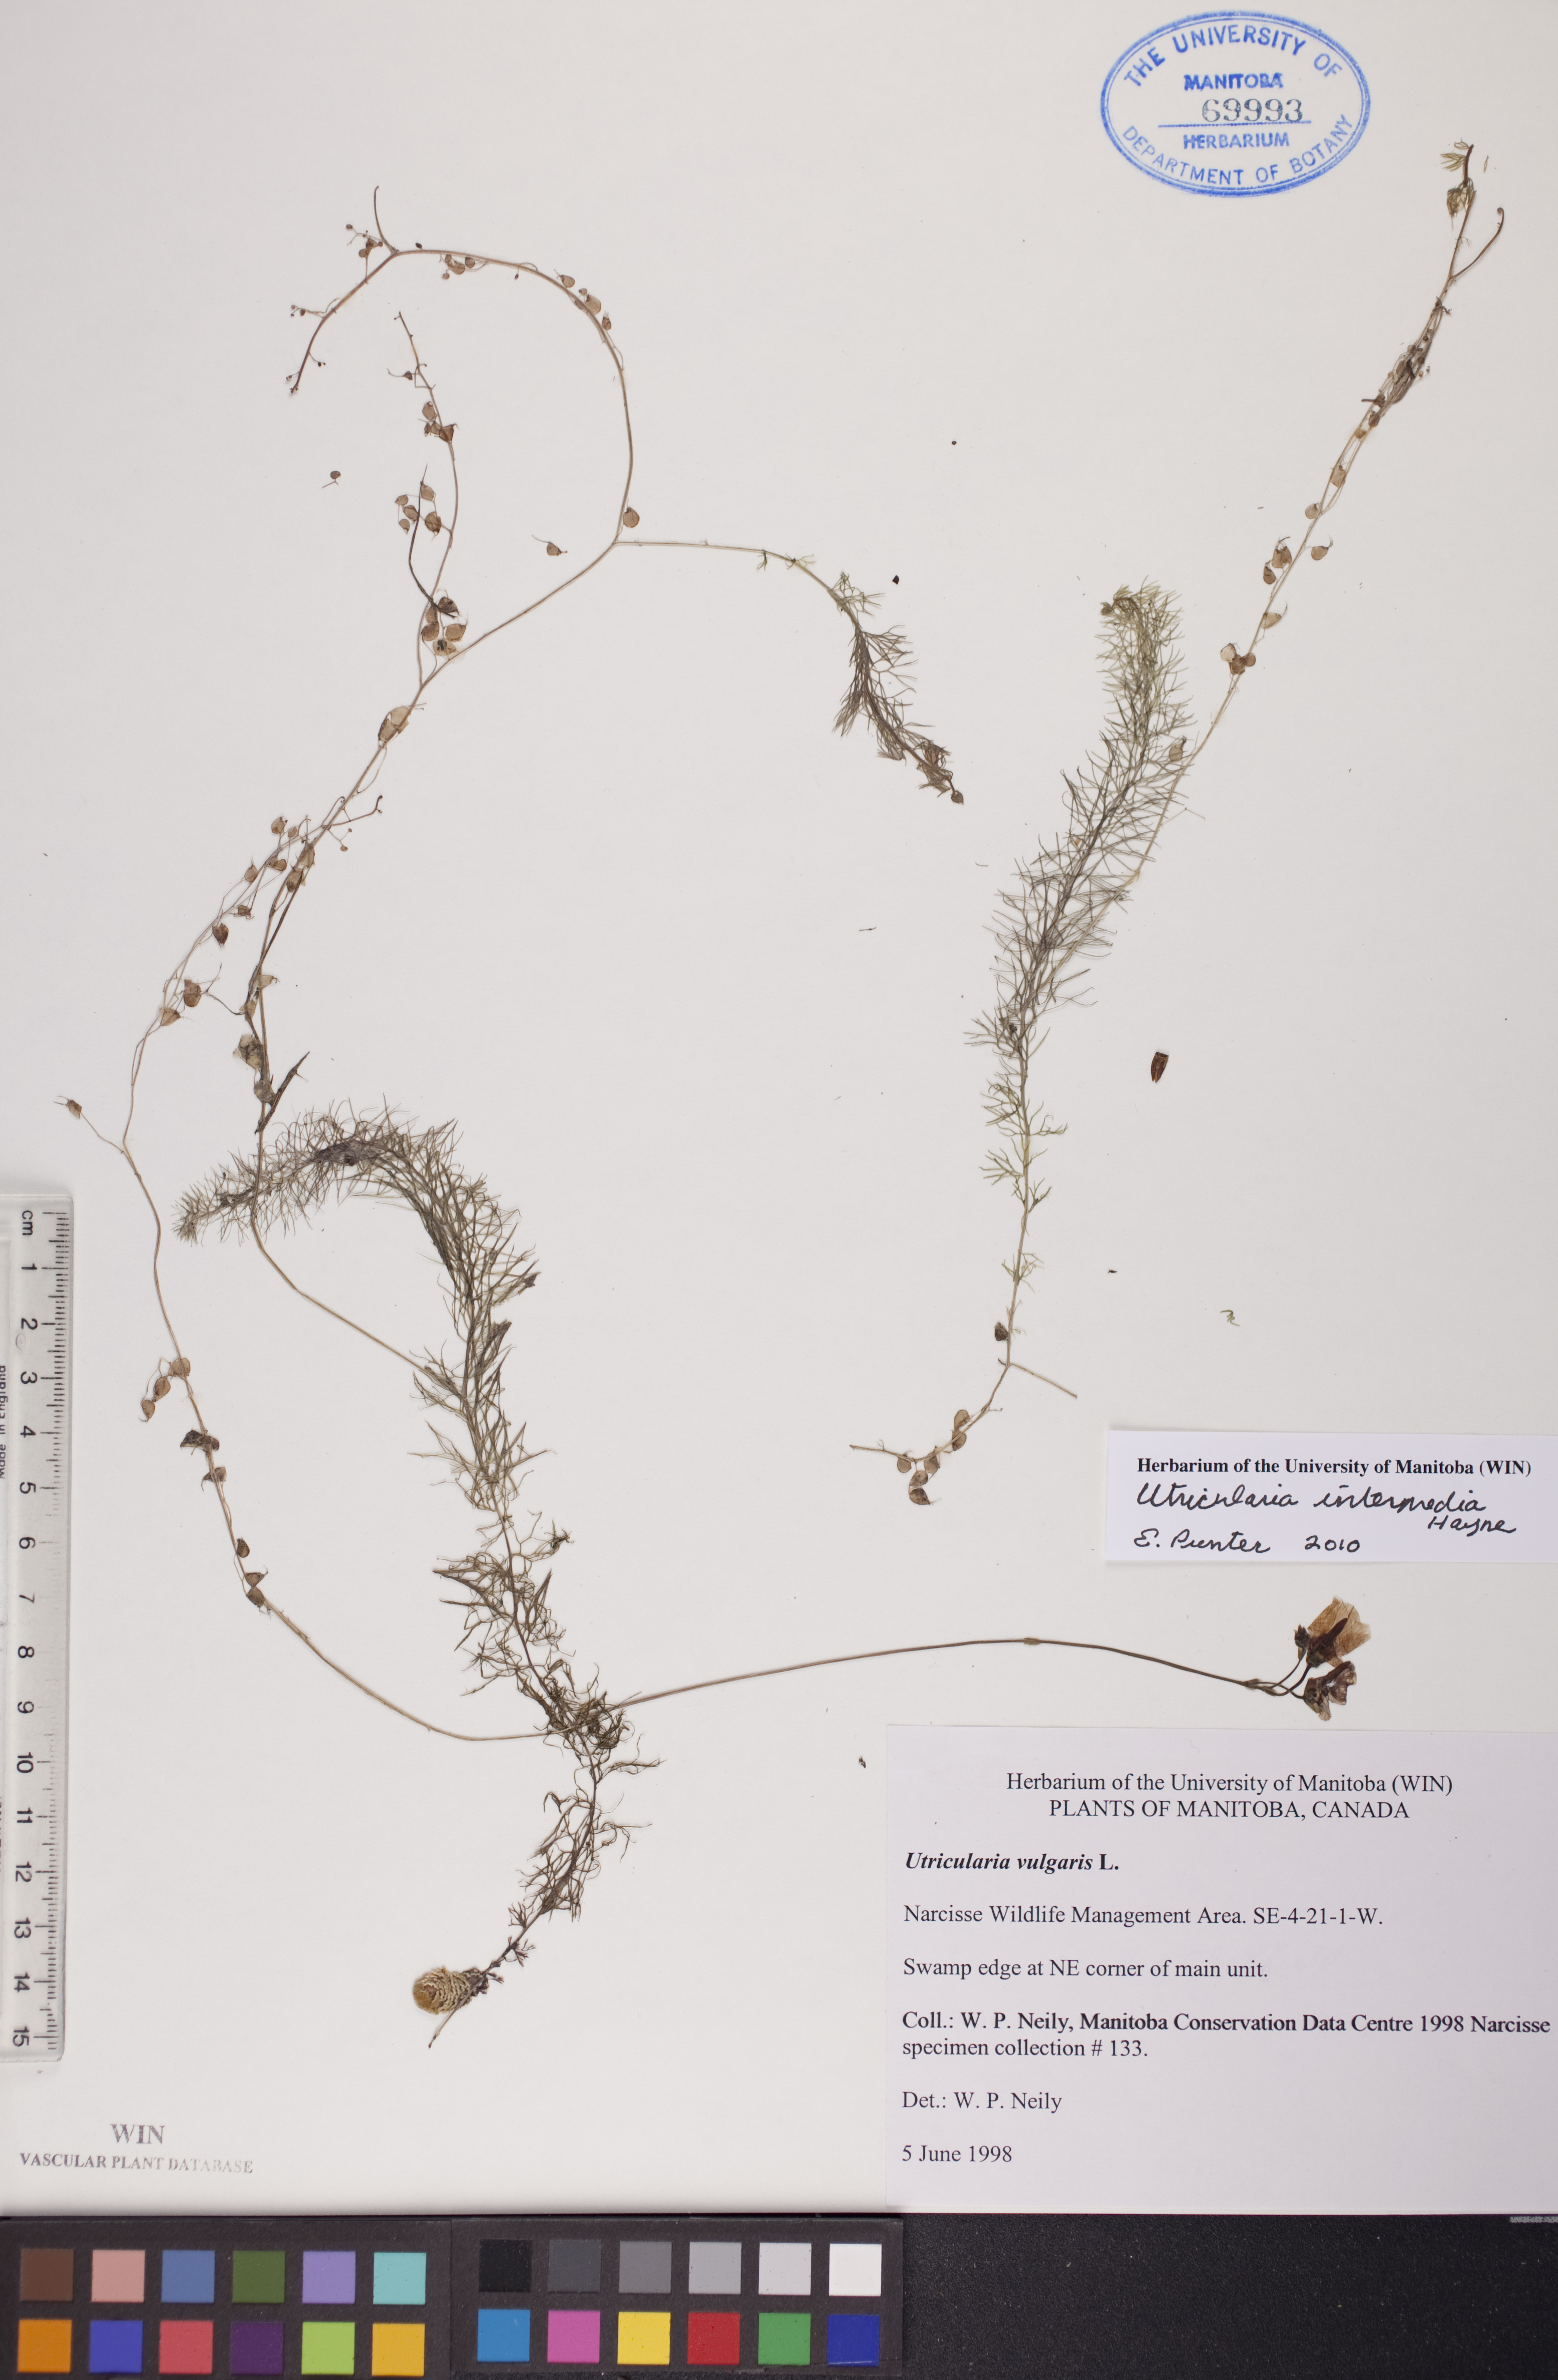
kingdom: Plantae
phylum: Tracheophyta
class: Magnoliopsida
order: Lamiales
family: Lentibulariaceae
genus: Utricularia
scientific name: Utricularia intermedia
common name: Intermediate bladderwort
